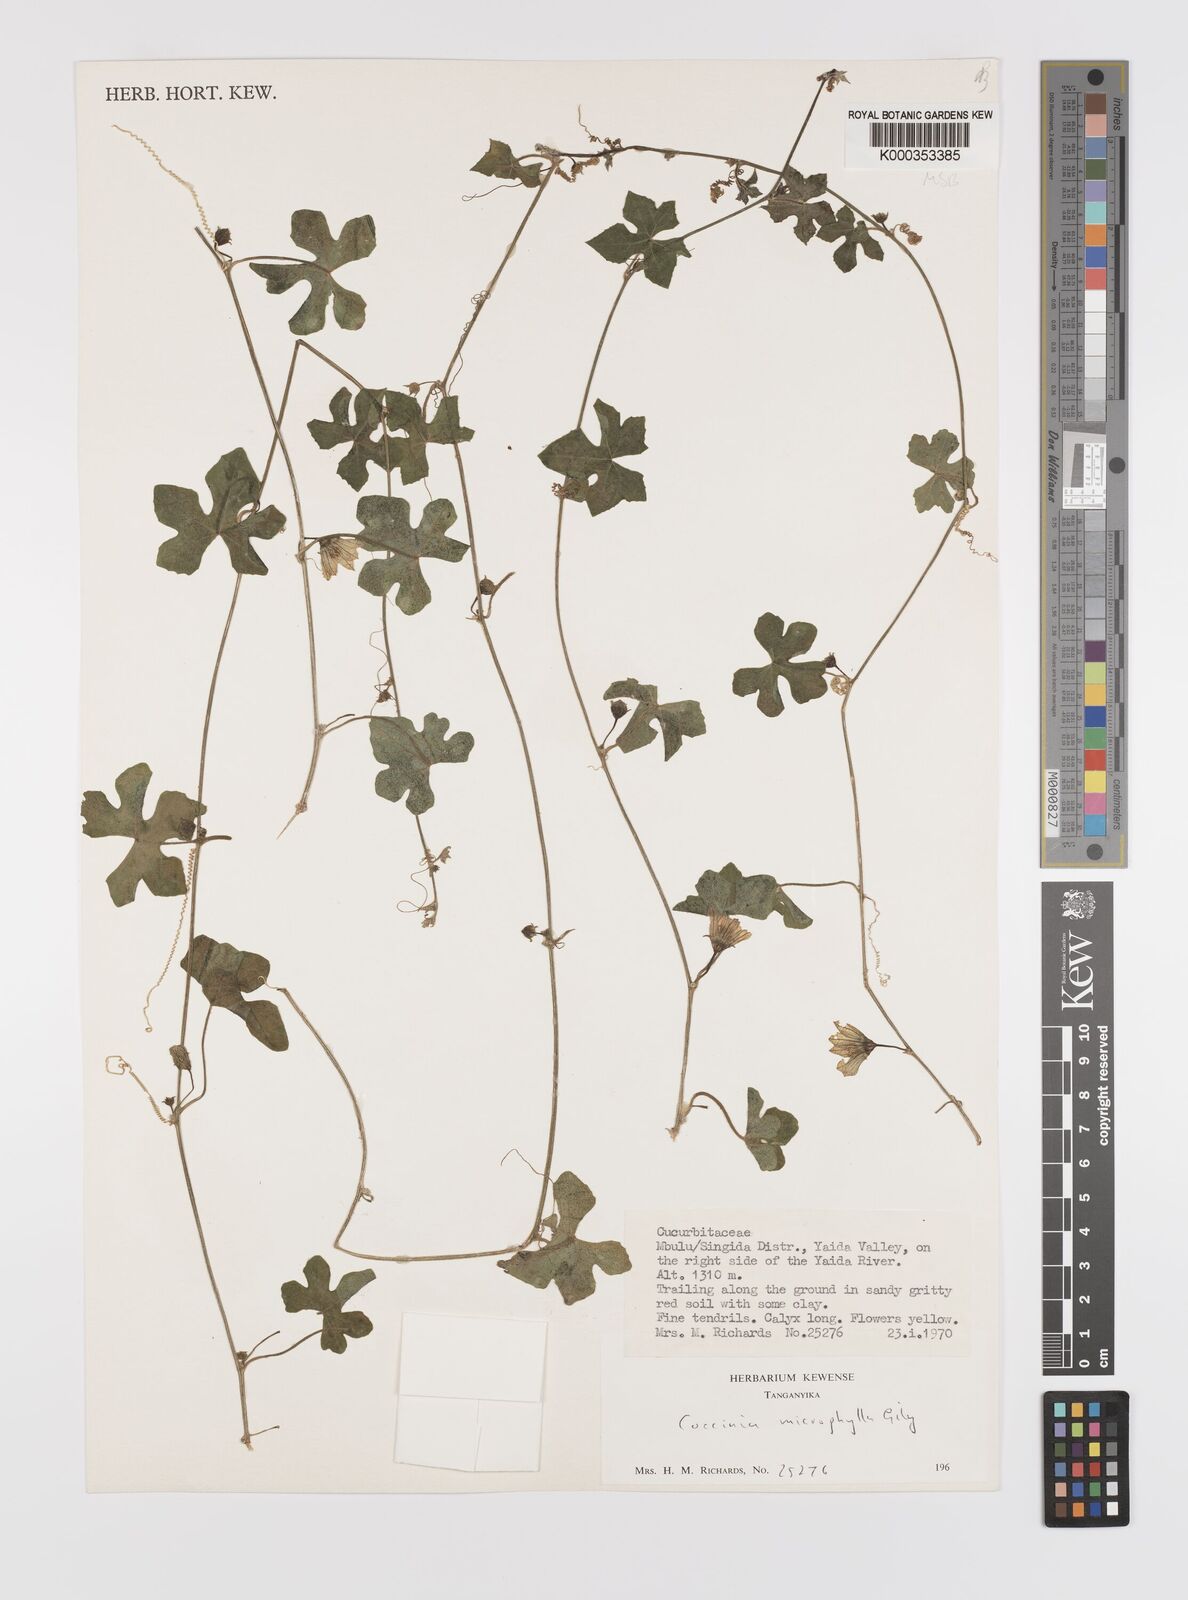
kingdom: Plantae
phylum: Tracheophyta
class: Magnoliopsida
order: Cucurbitales
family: Cucurbitaceae
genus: Coccinia
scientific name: Coccinia microphylla
